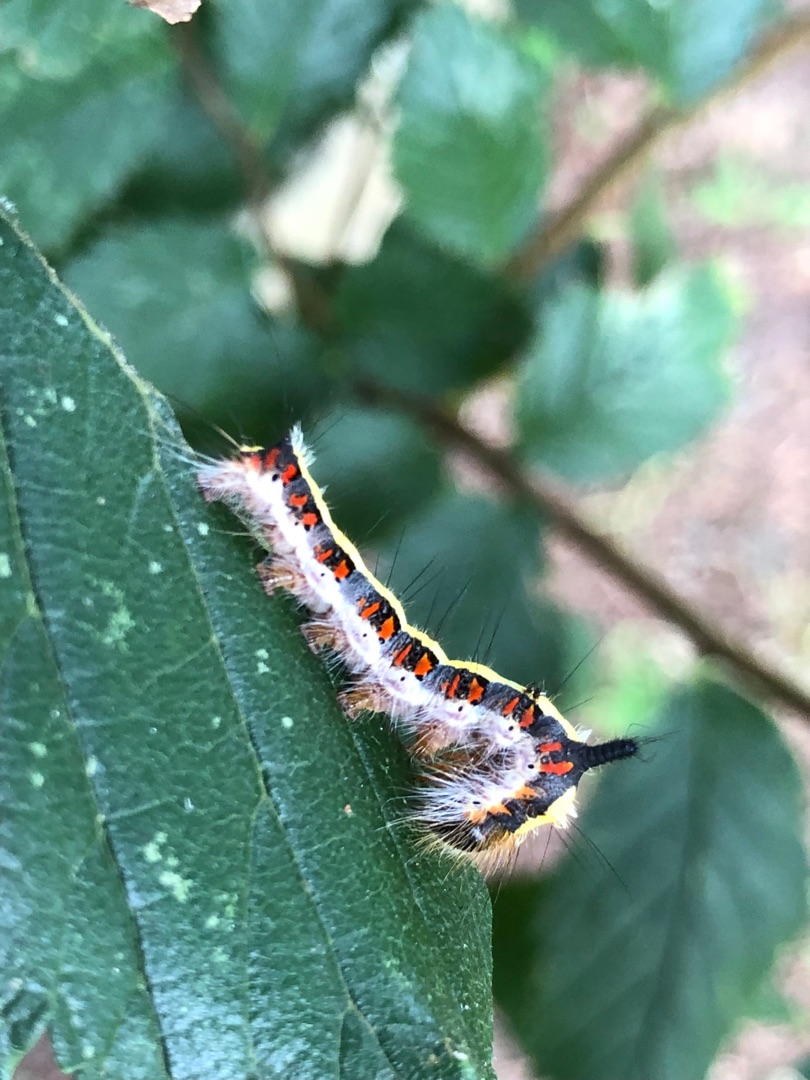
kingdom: Animalia
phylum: Arthropoda
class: Insecta
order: Lepidoptera
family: Noctuidae
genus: Acronicta
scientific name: Acronicta psi
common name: Psi-ugle
